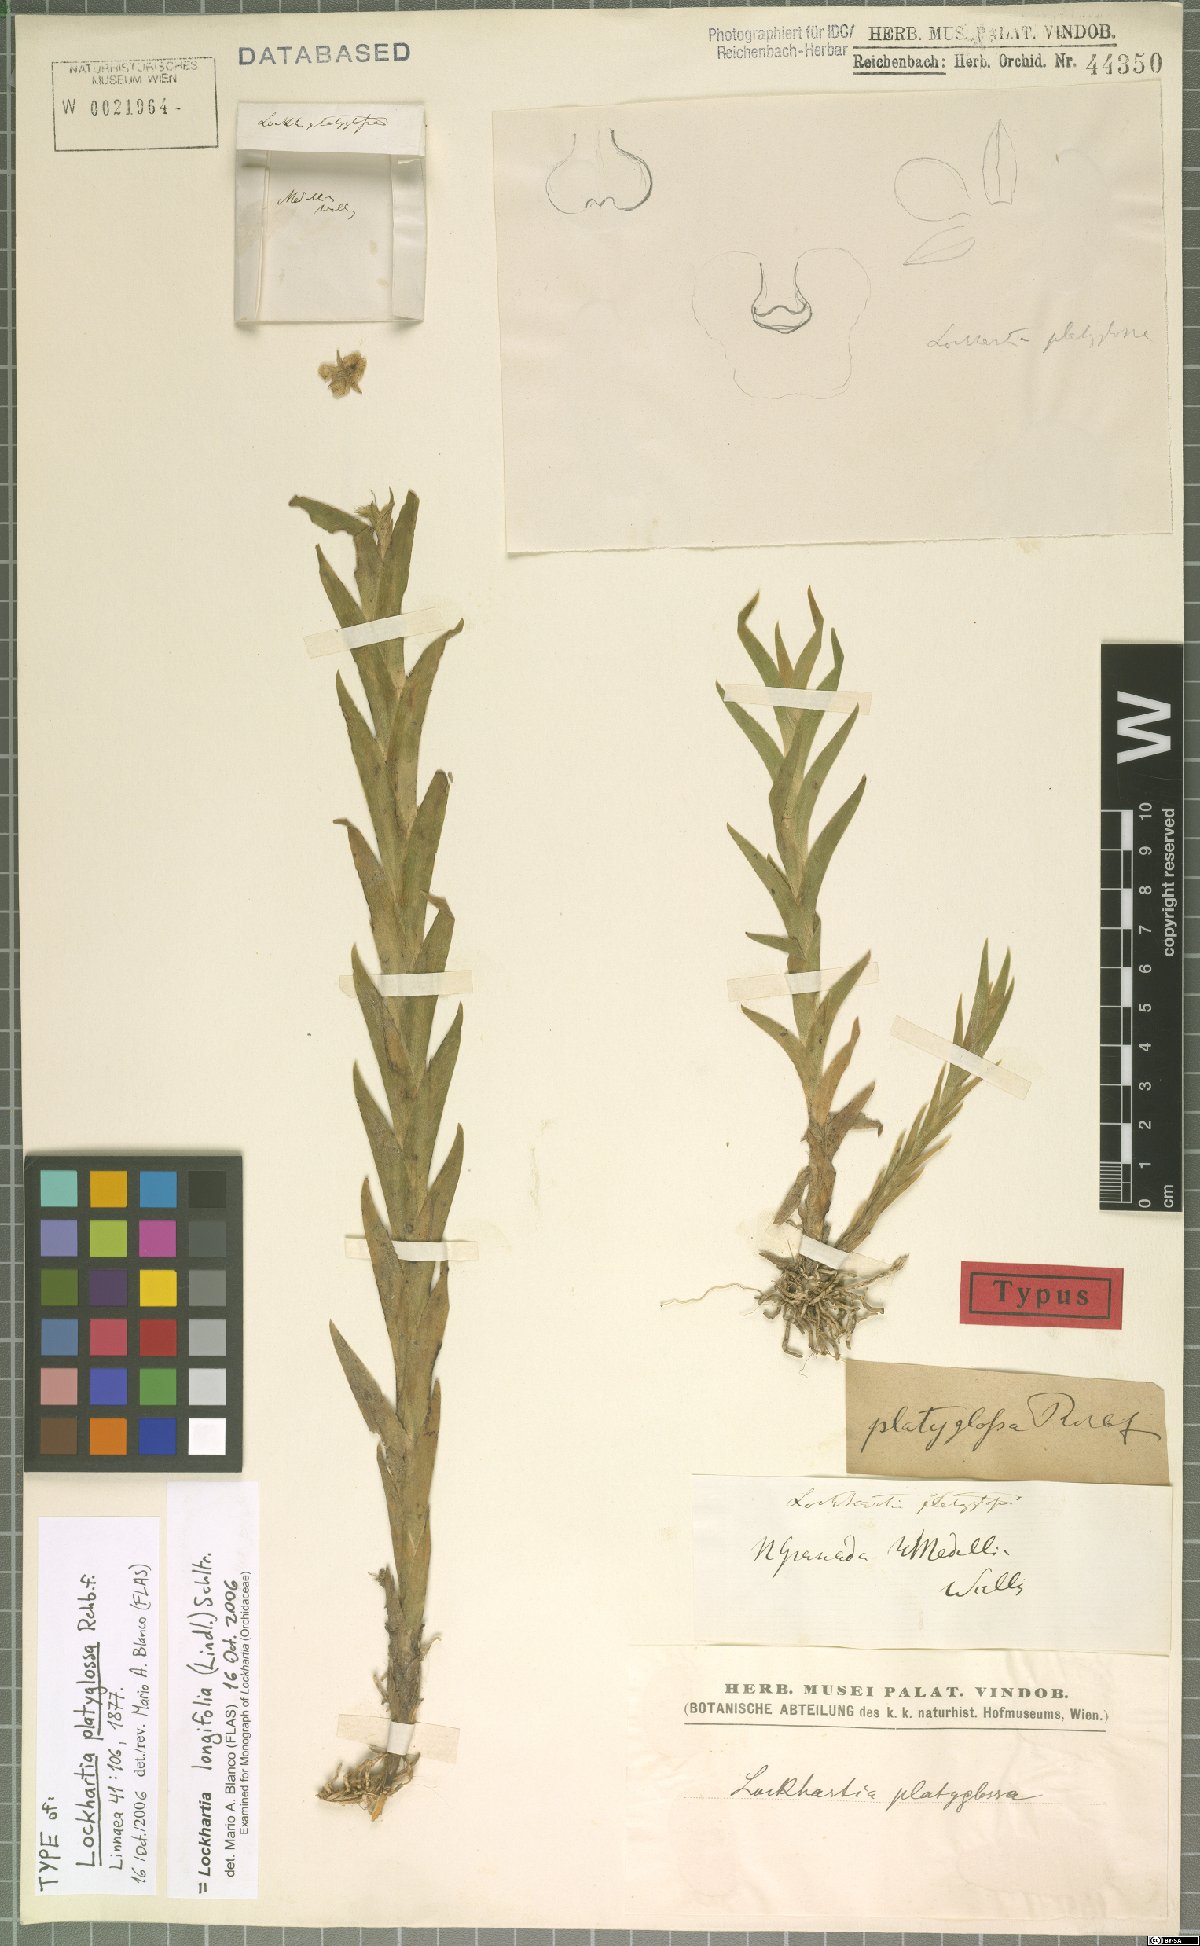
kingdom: Plantae
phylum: Tracheophyta
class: Liliopsida
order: Asparagales
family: Orchidaceae
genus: Lockhartia
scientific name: Lockhartia longifolia
